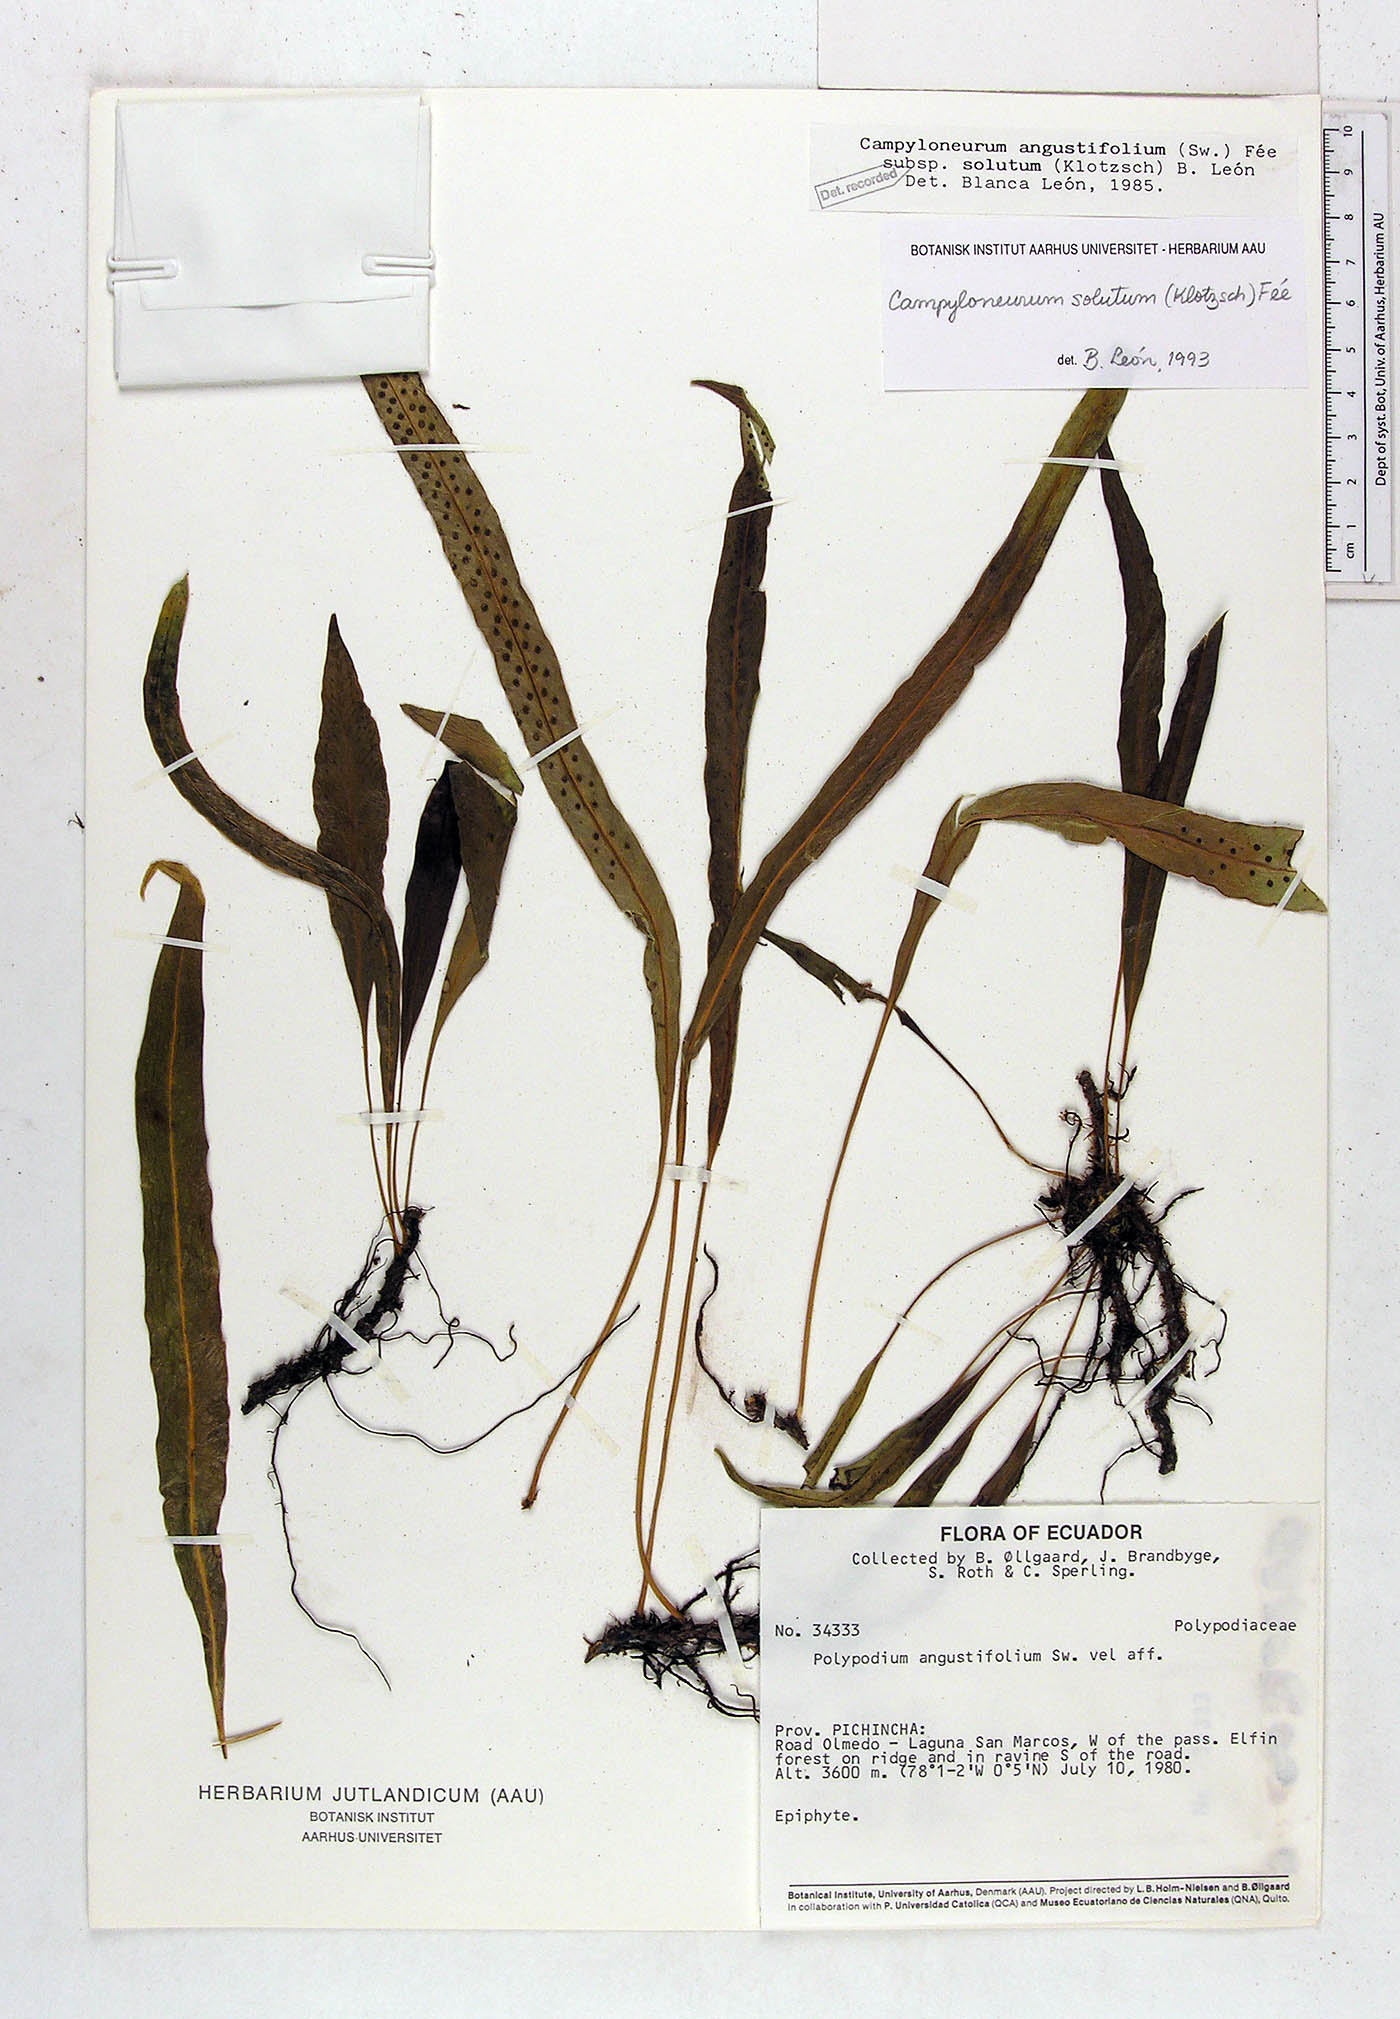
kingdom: Plantae
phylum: Tracheophyta
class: Polypodiopsida
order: Polypodiales
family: Polypodiaceae
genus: Campyloneurum
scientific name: Campyloneurum solutum
